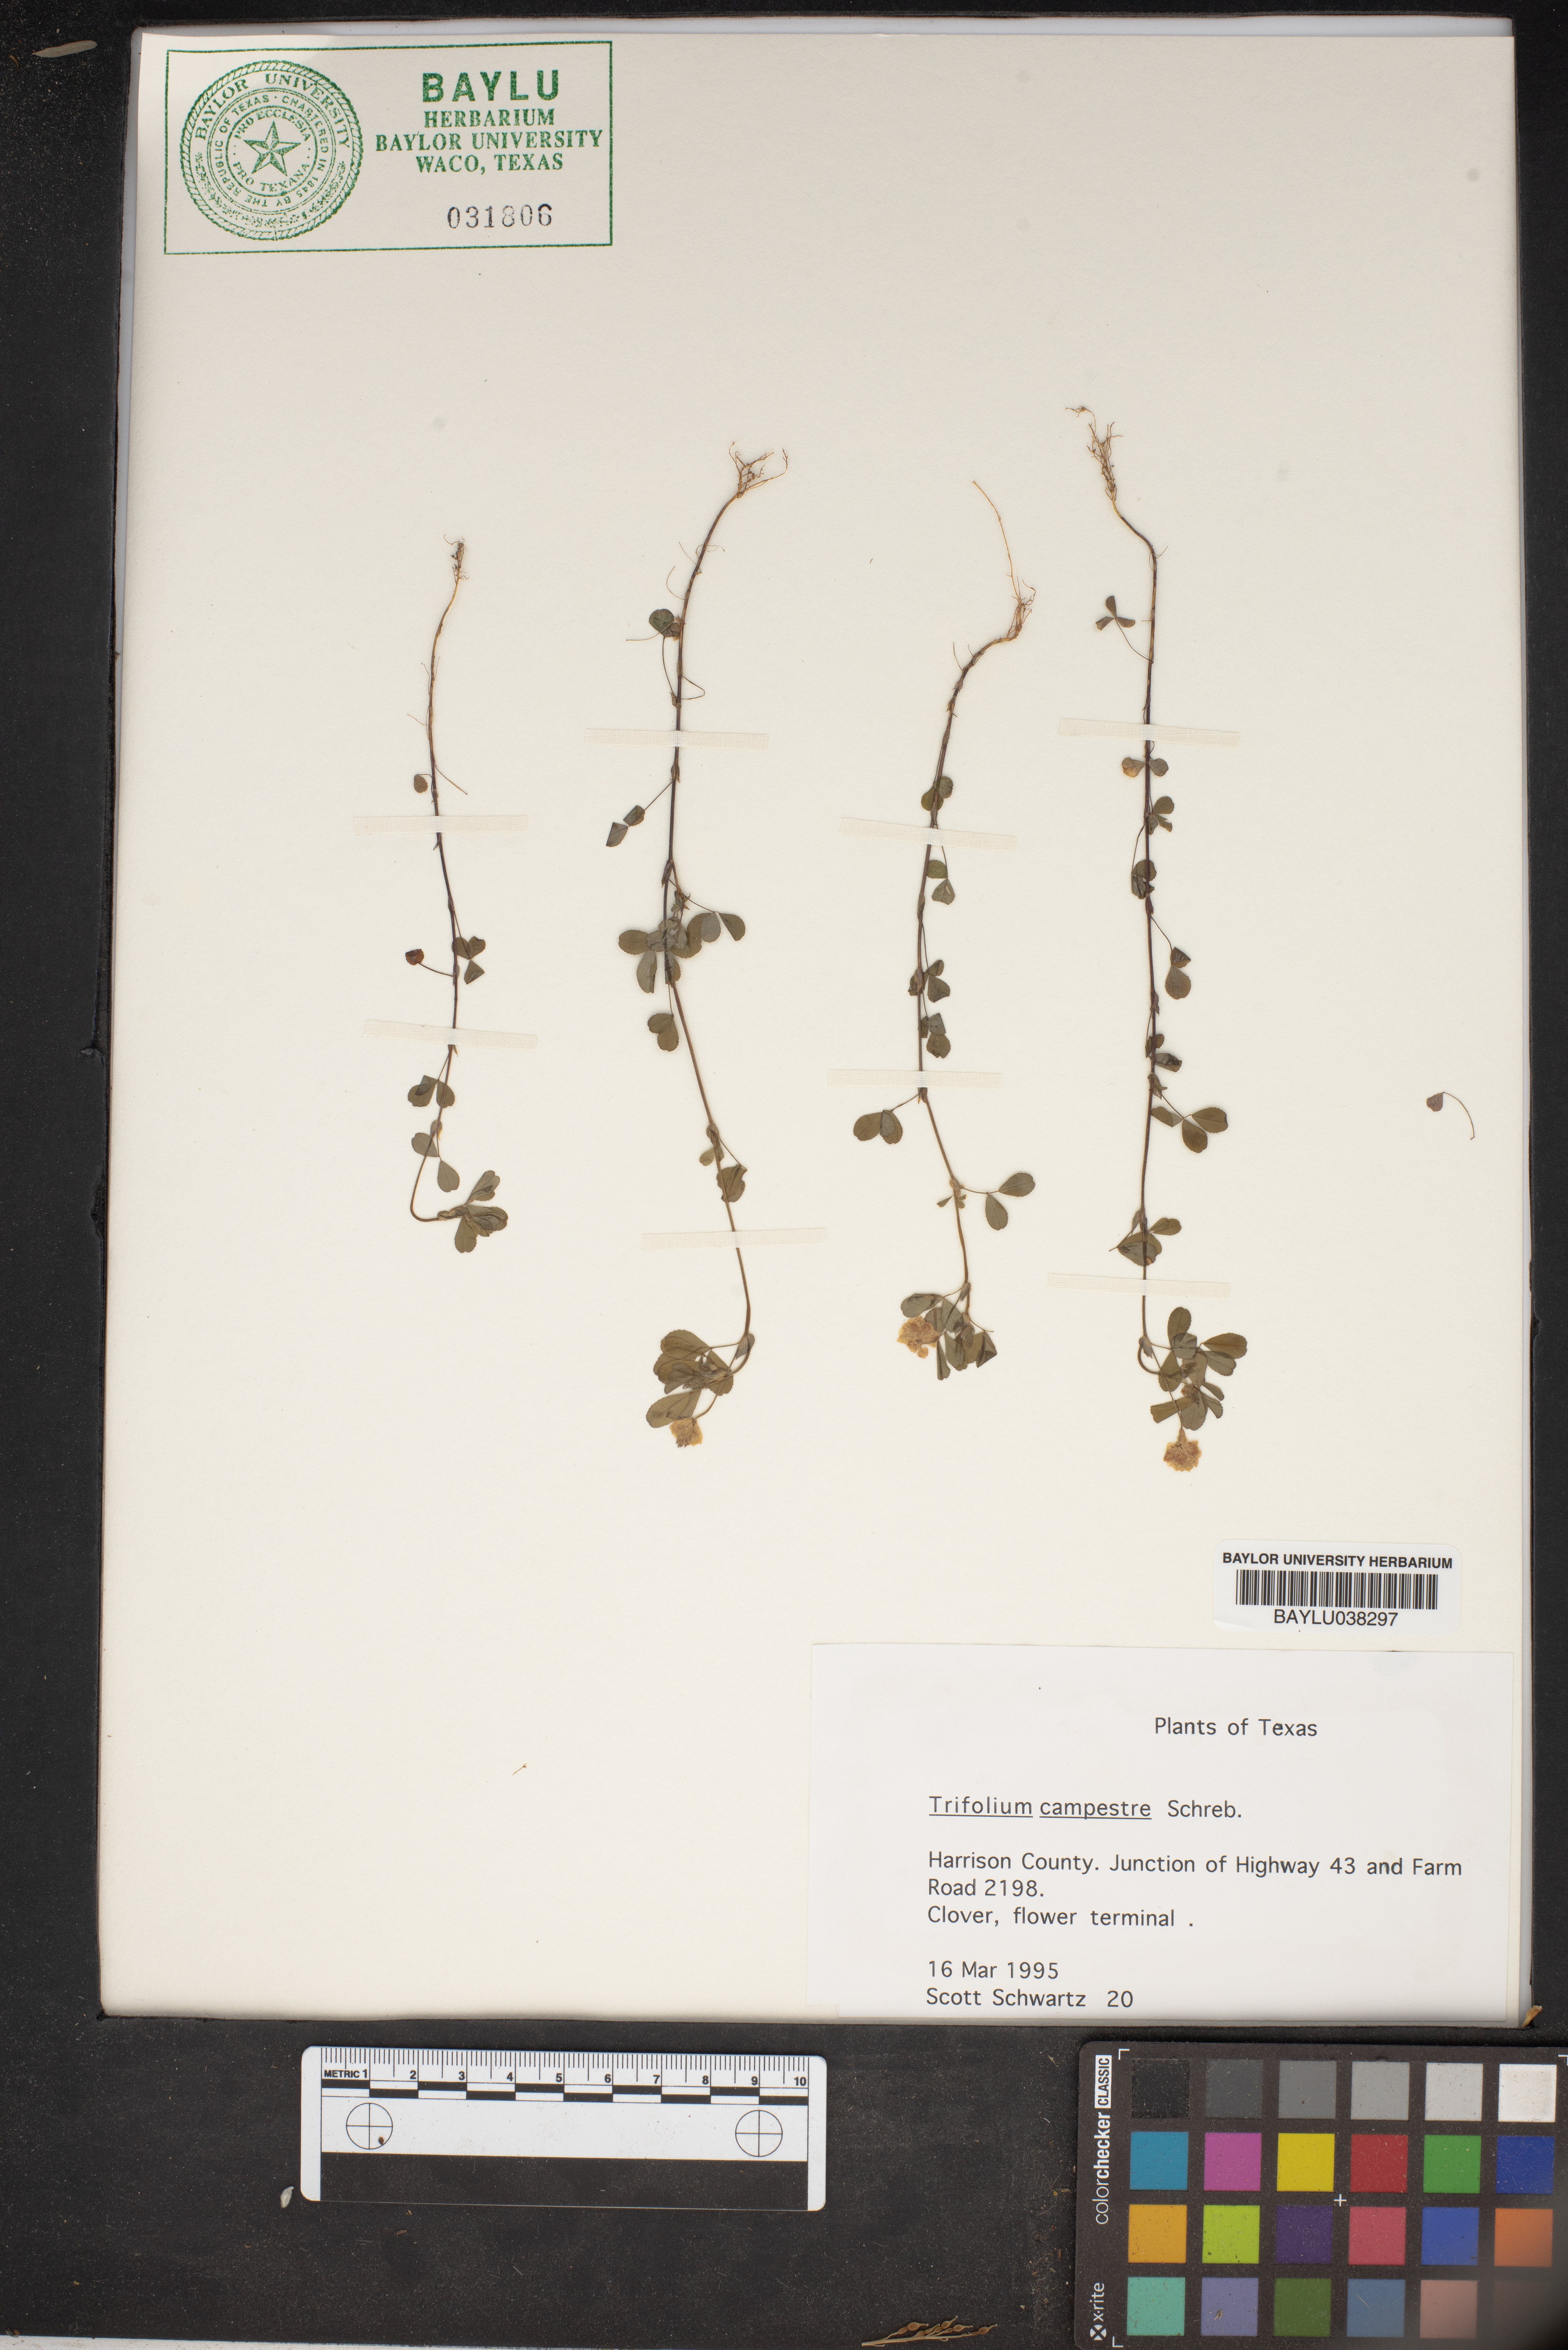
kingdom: Plantae
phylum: Tracheophyta
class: Magnoliopsida
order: Fabales
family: Fabaceae
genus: Trifolium
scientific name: Trifolium campestre
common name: Field clover
